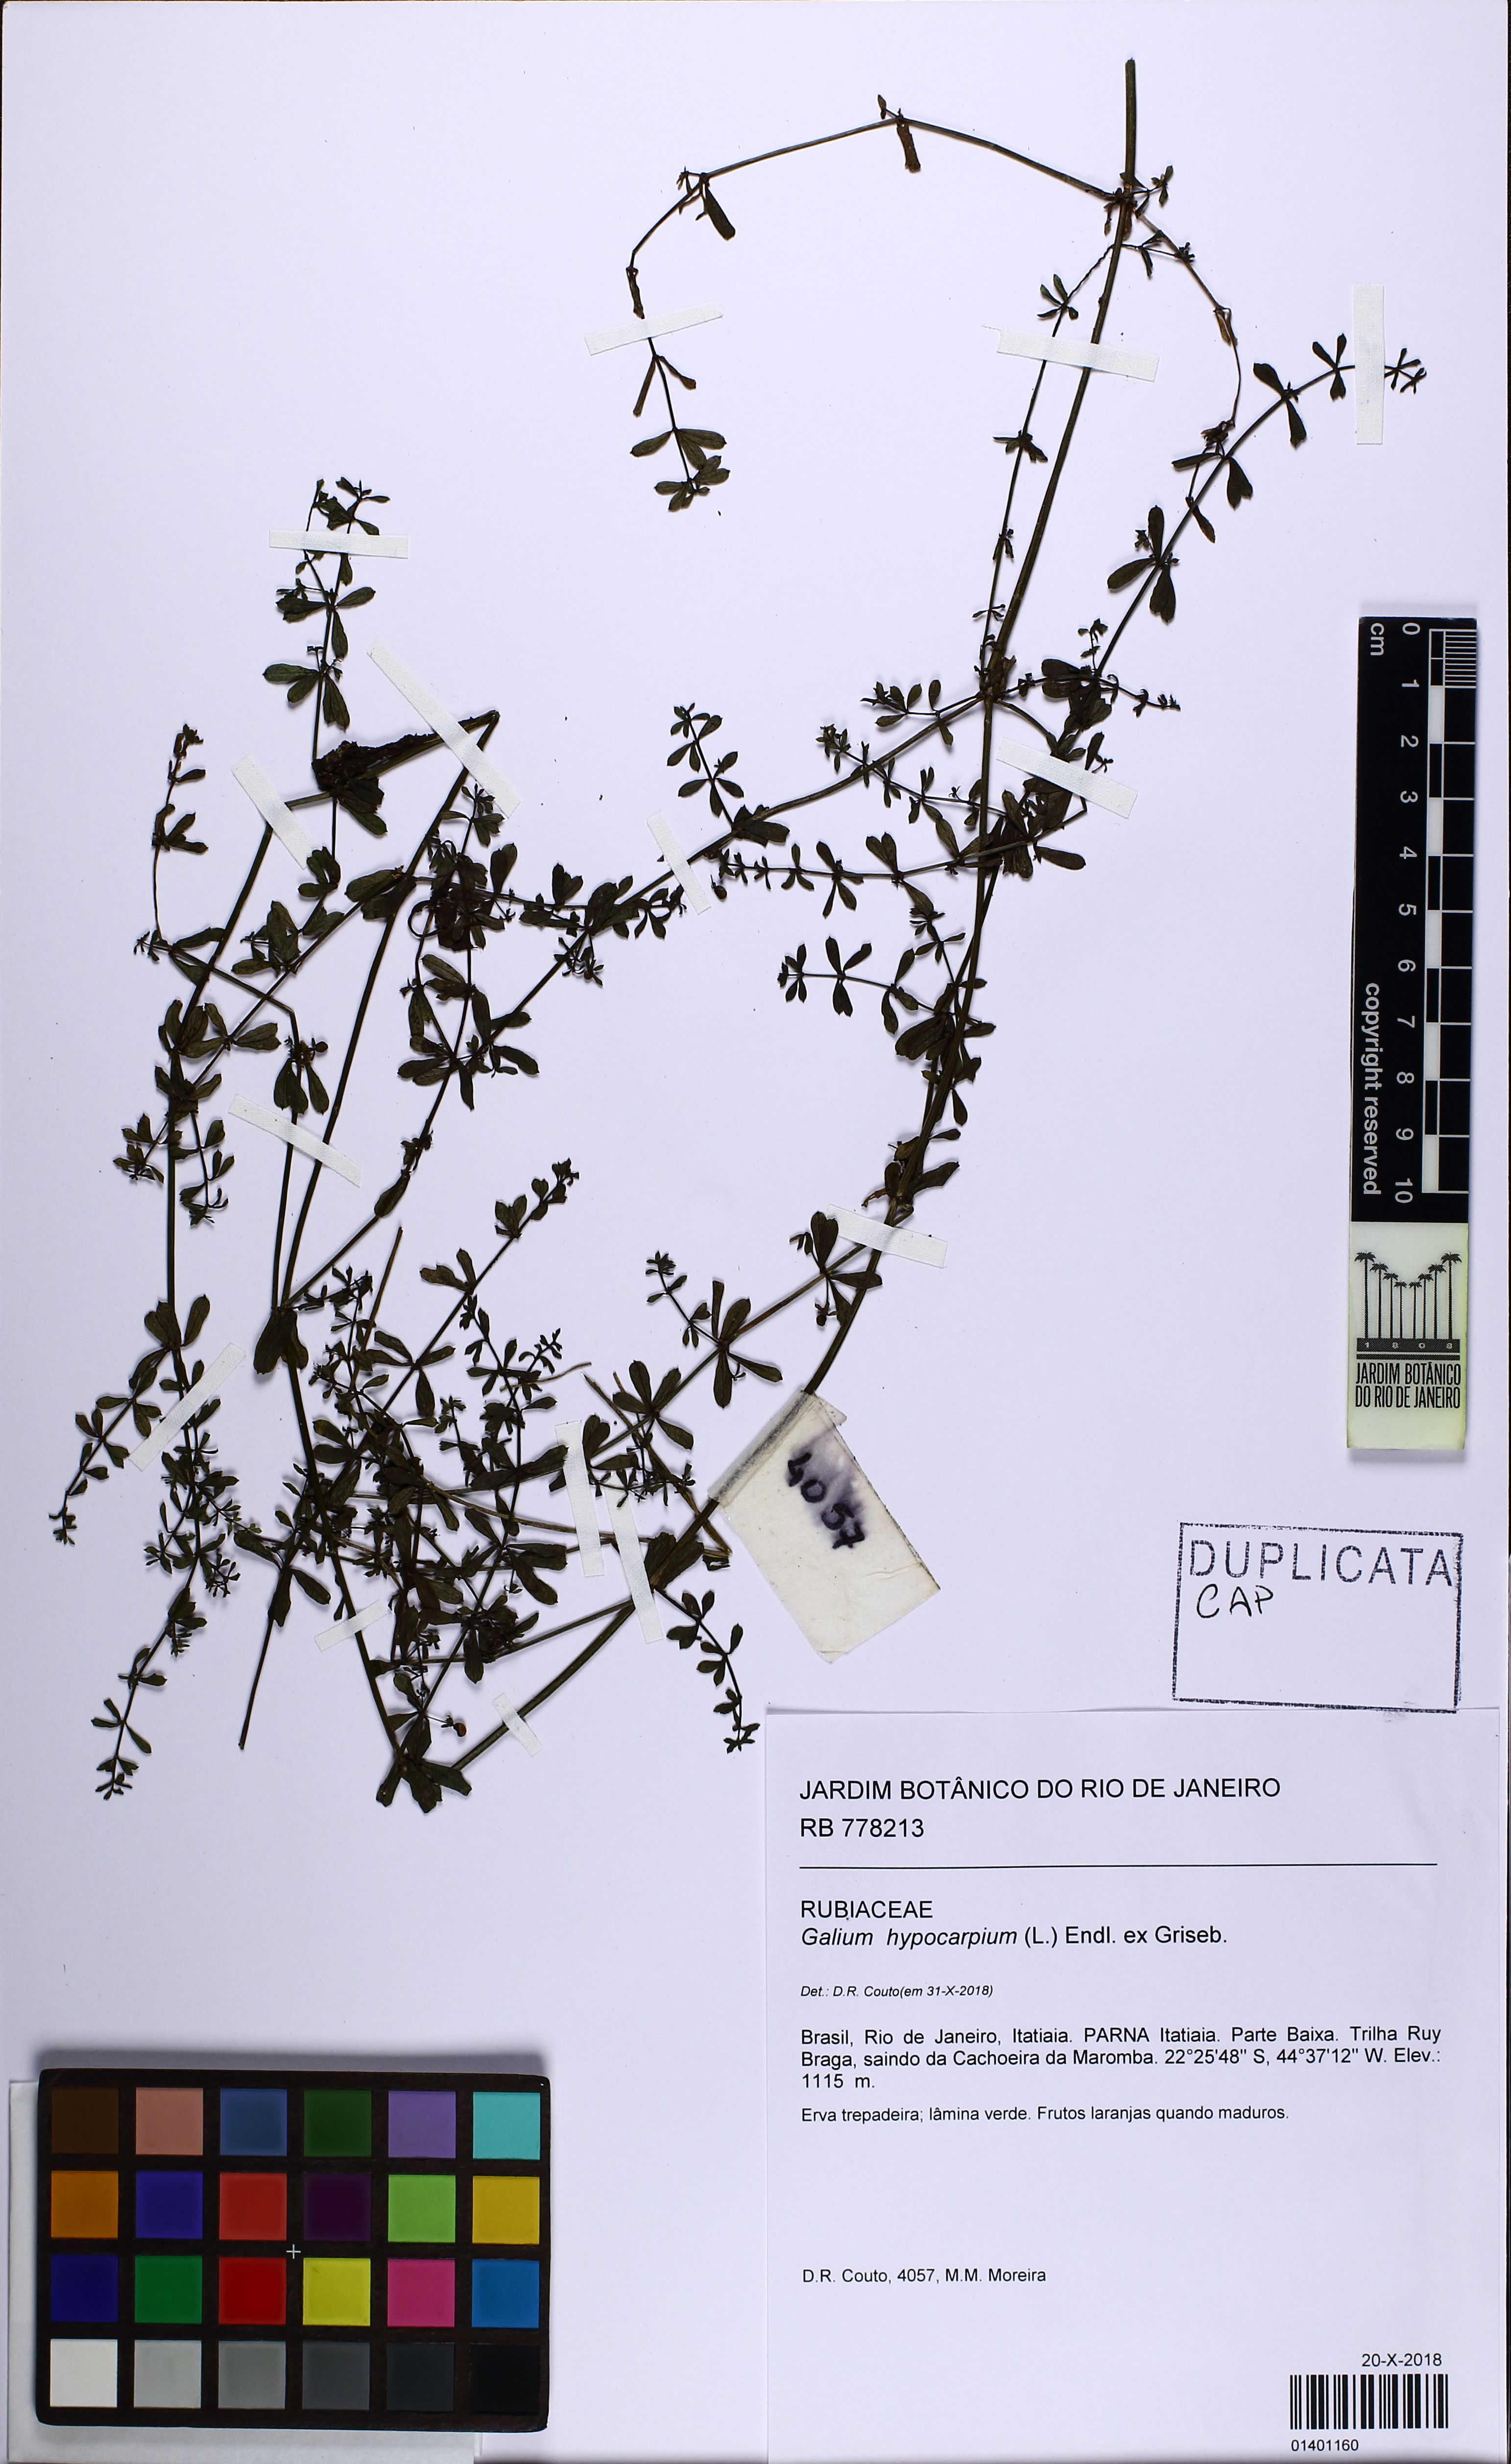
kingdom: Plantae
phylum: Tracheophyta
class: Magnoliopsida
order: Gentianales
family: Rubiaceae
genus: Galium
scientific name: Galium hypocarpium
